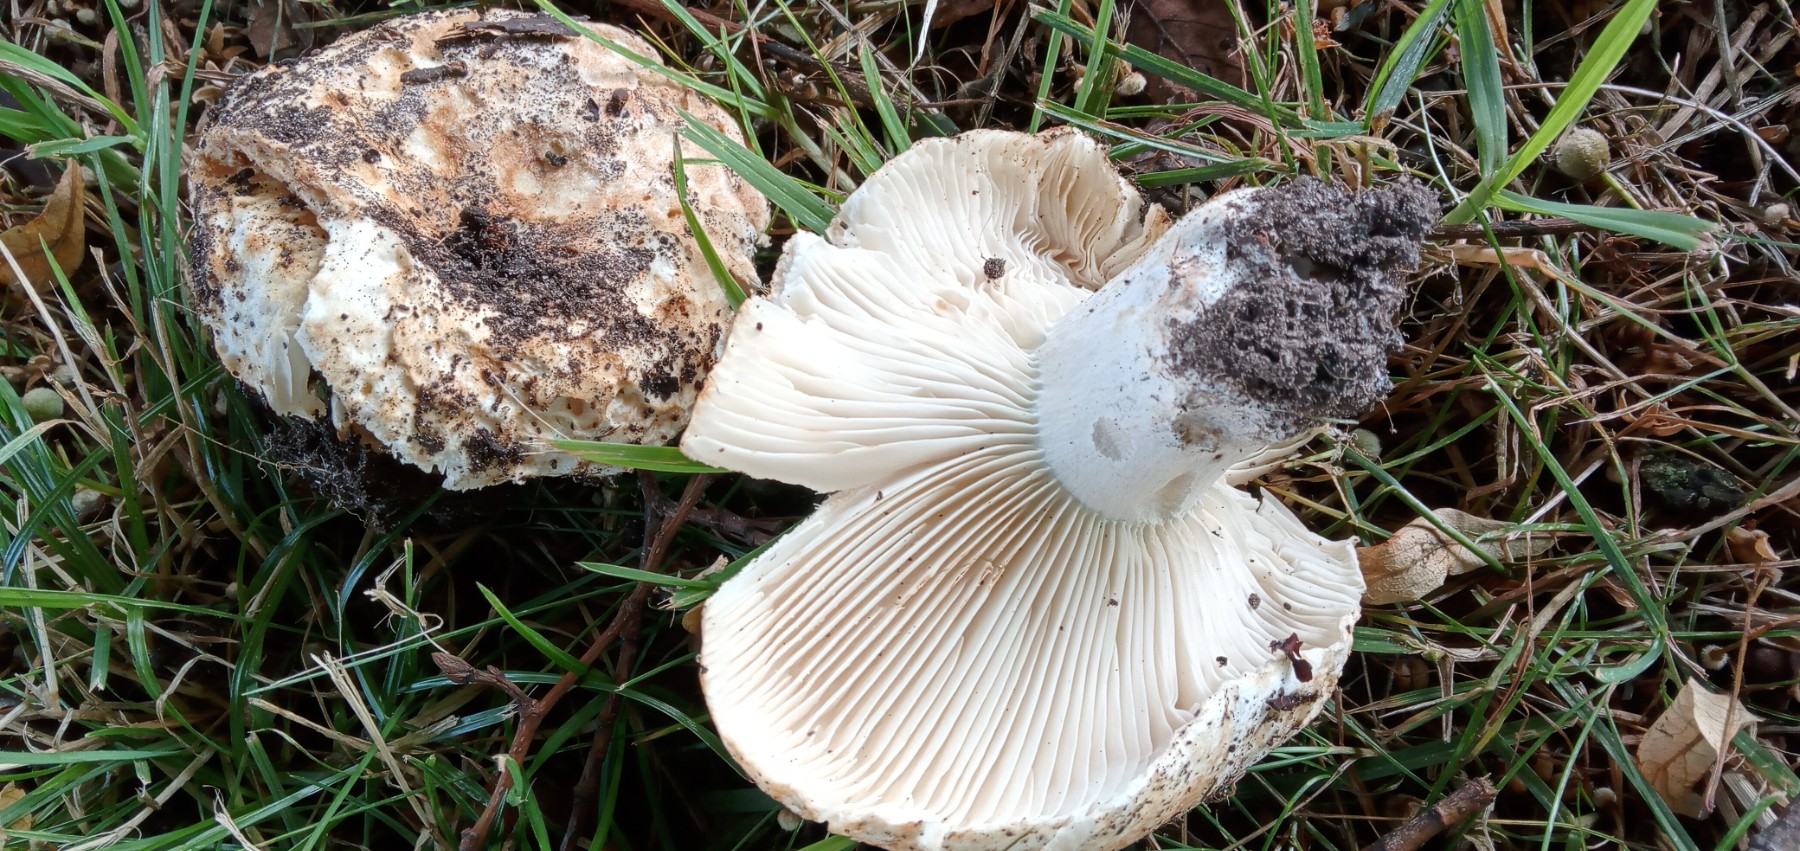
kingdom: Fungi
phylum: Basidiomycota
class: Agaricomycetes
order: Russulales
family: Russulaceae
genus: Russula
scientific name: Russula chloroides
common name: grønhalset tragt-skørhat
